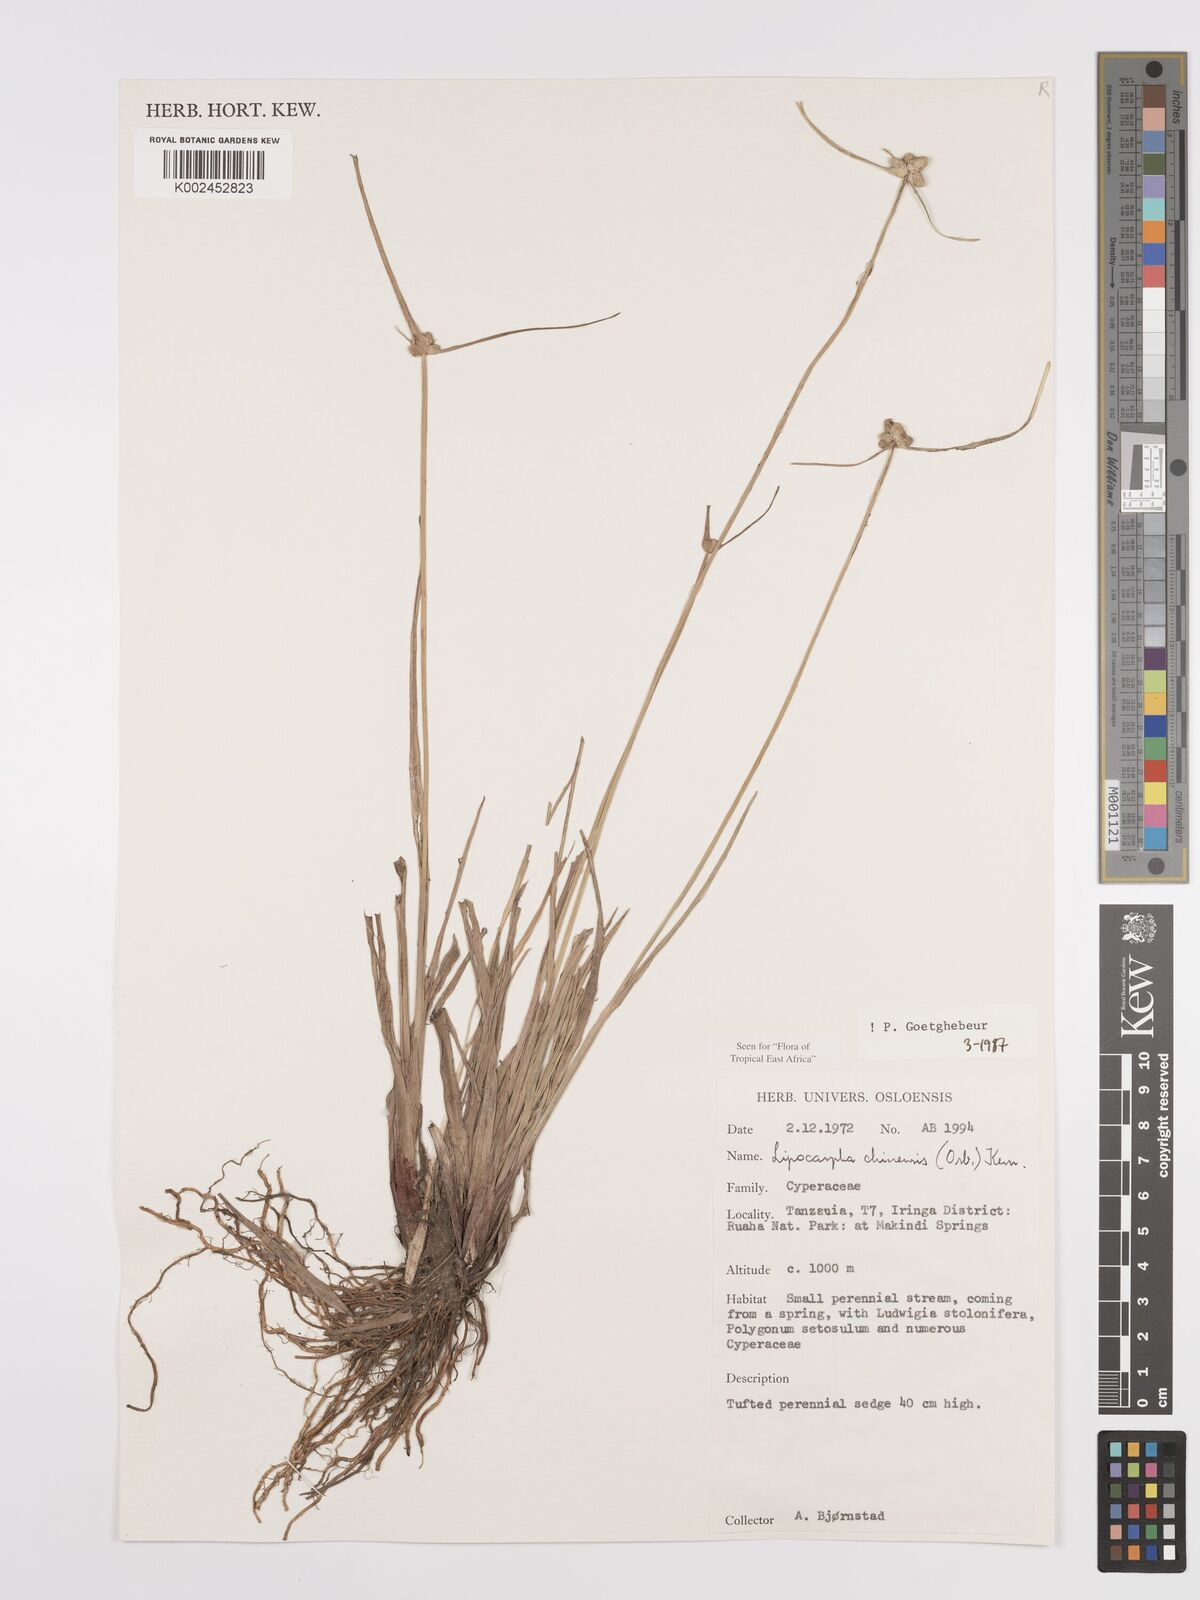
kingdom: Plantae
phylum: Tracheophyta
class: Liliopsida
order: Poales
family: Cyperaceae
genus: Cyperus
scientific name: Cyperus
